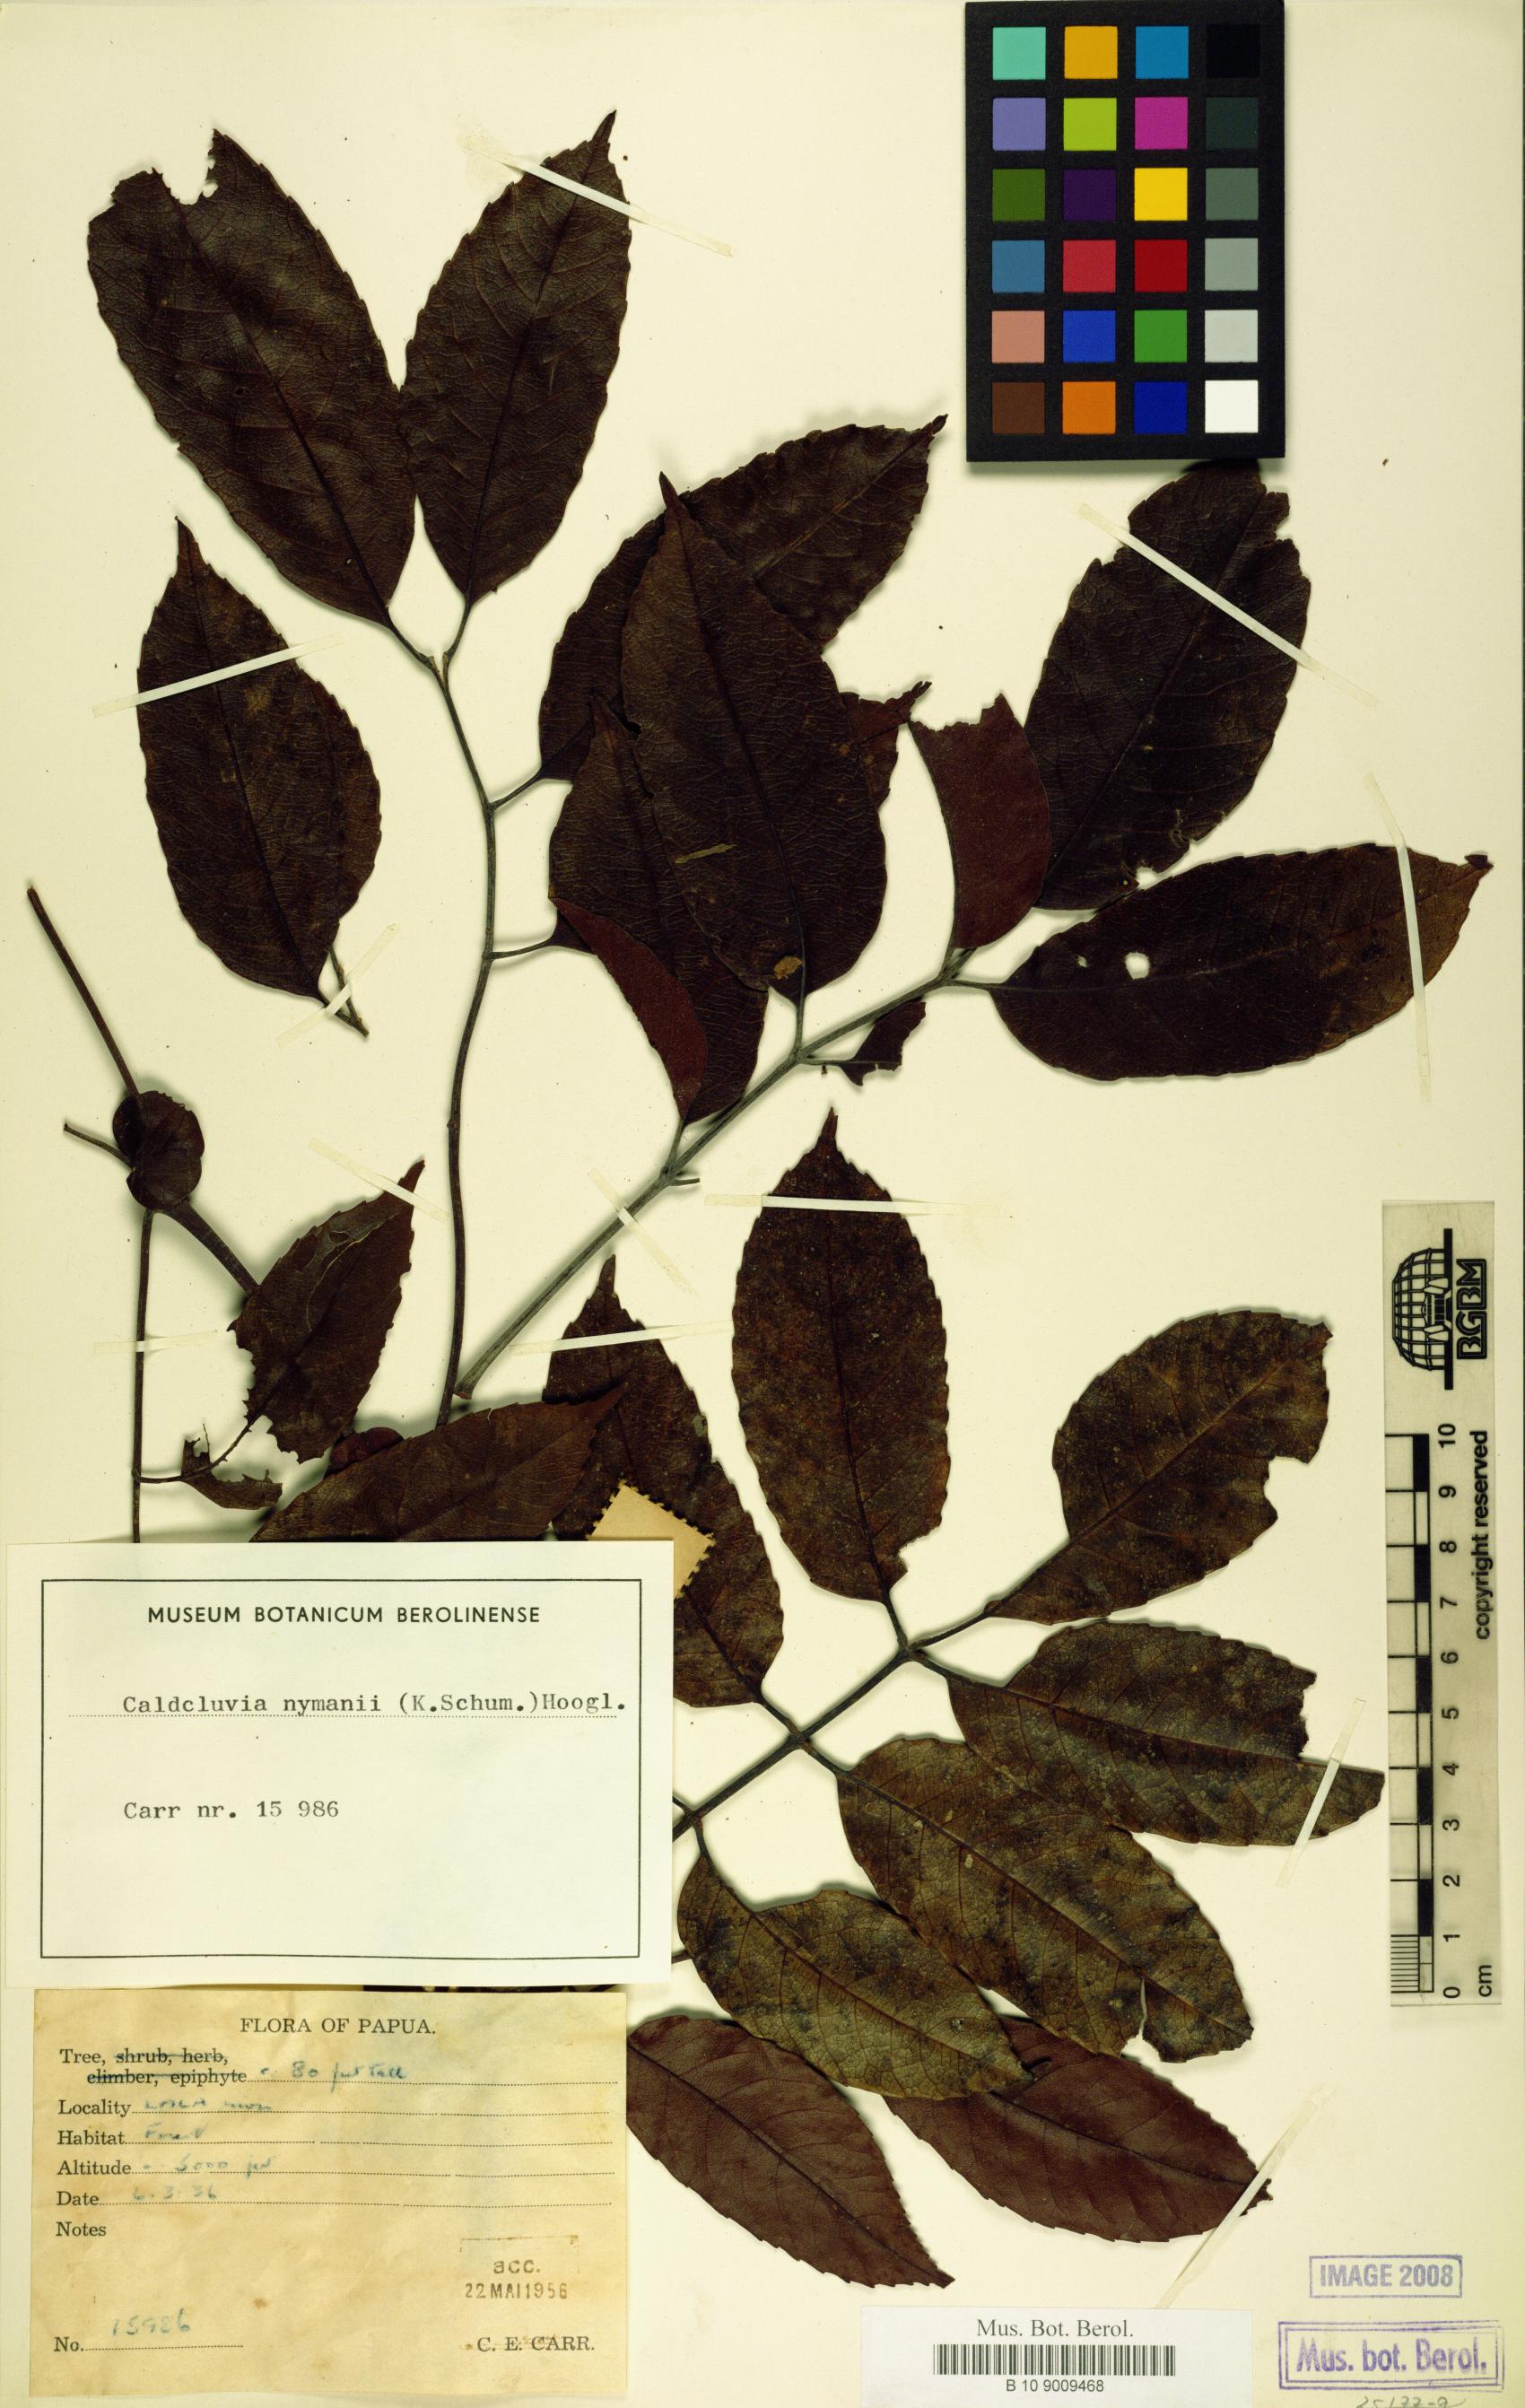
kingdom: Plantae
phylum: Tracheophyta
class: Magnoliopsida
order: Oxalidales
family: Cunoniaceae
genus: Opocunonia
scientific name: Opocunonia nymanii
